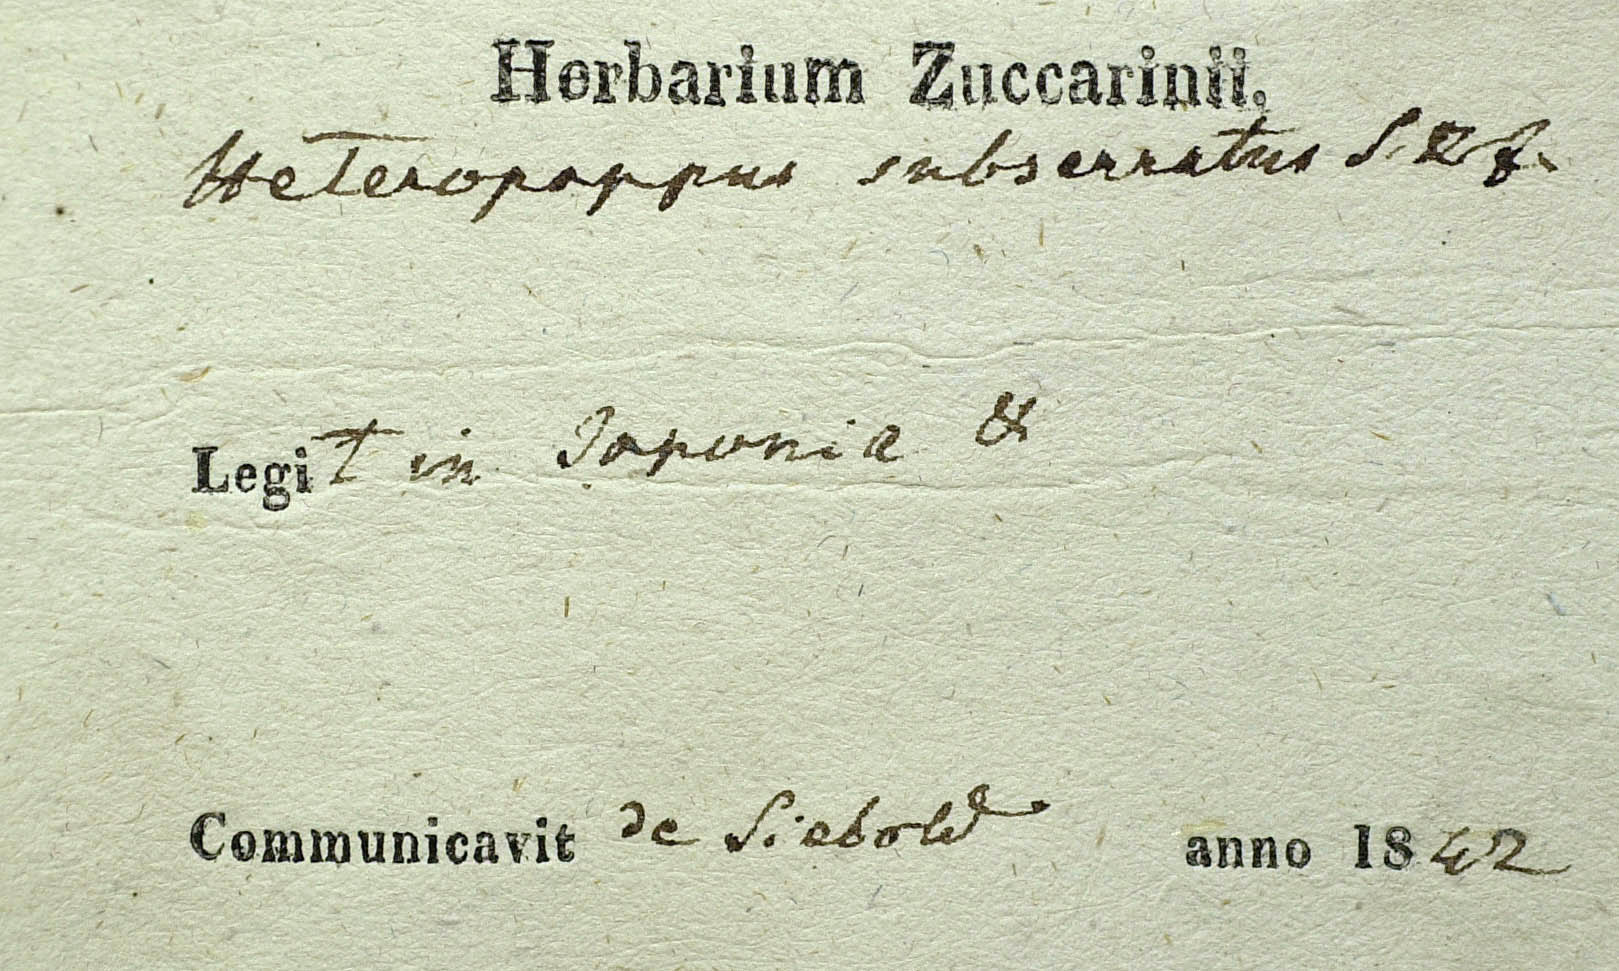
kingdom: Plantae
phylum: Tracheophyta
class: Magnoliopsida
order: Asterales
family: Asteraceae
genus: Heteropappus
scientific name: Heteropappus hispidus
